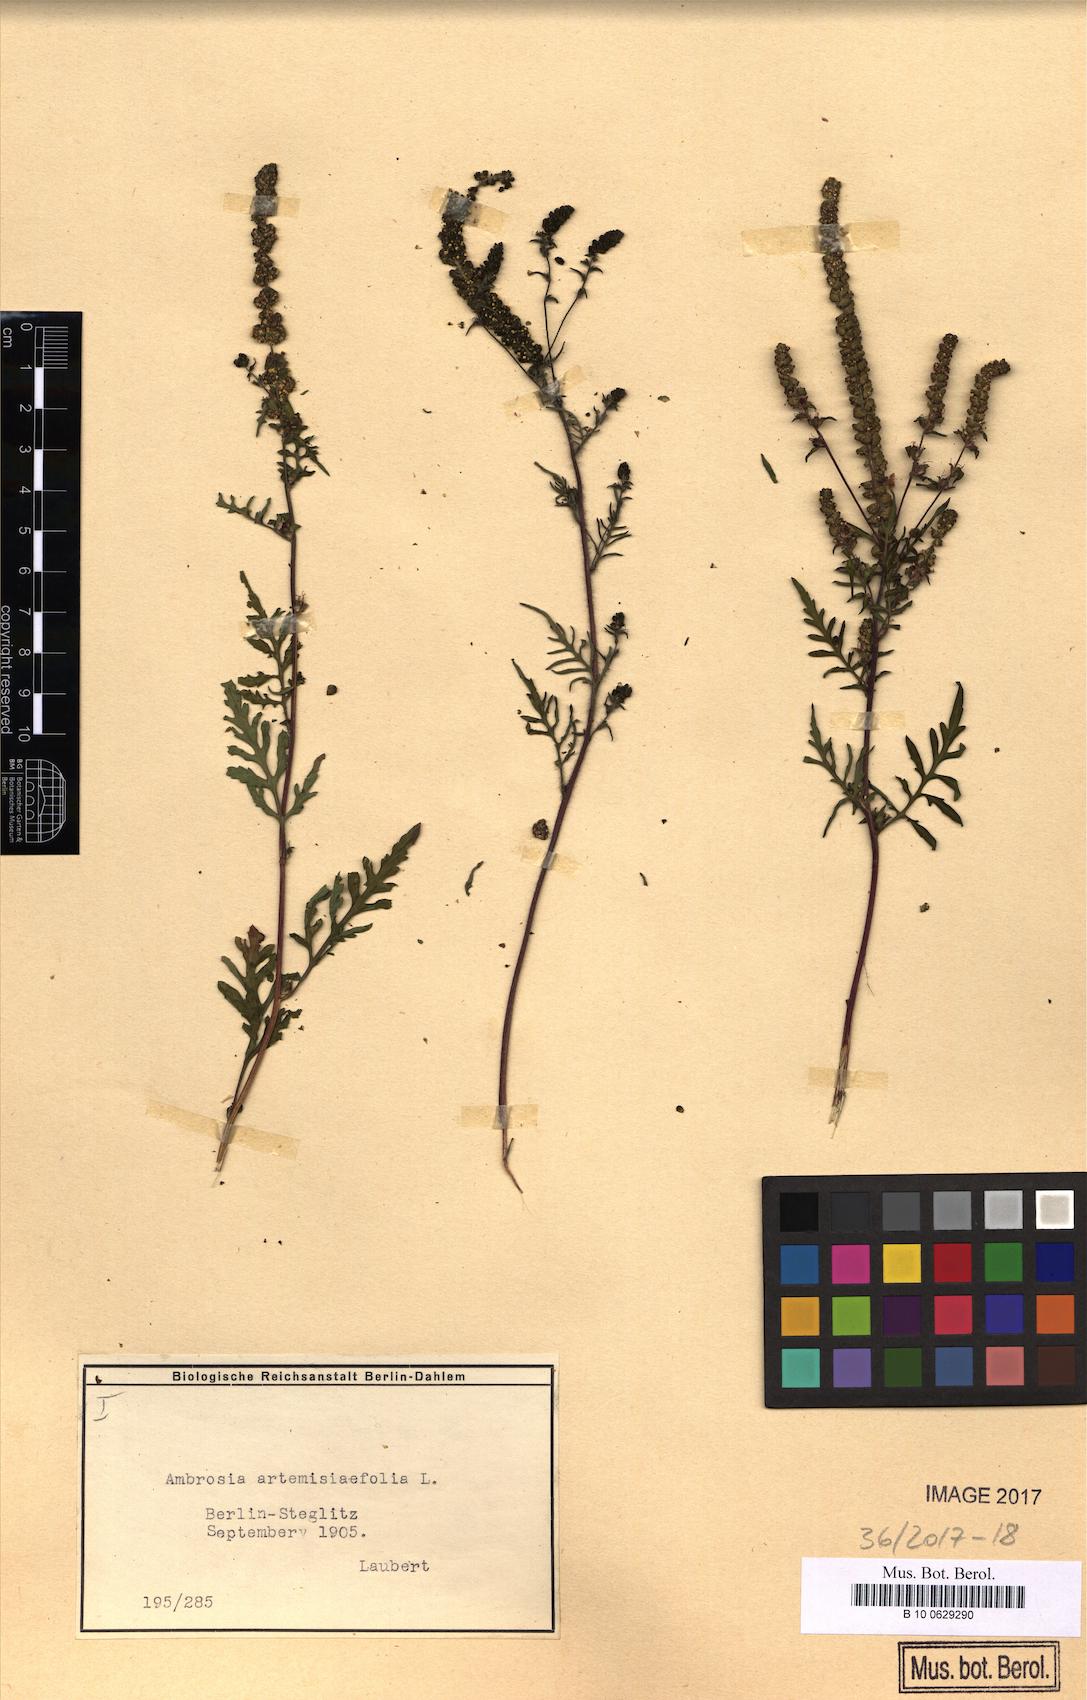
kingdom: Plantae
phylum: Tracheophyta
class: Magnoliopsida
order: Asterales
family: Asteraceae
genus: Ambrosia
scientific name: Ambrosia artemisiifolia
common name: Annual ragweed
